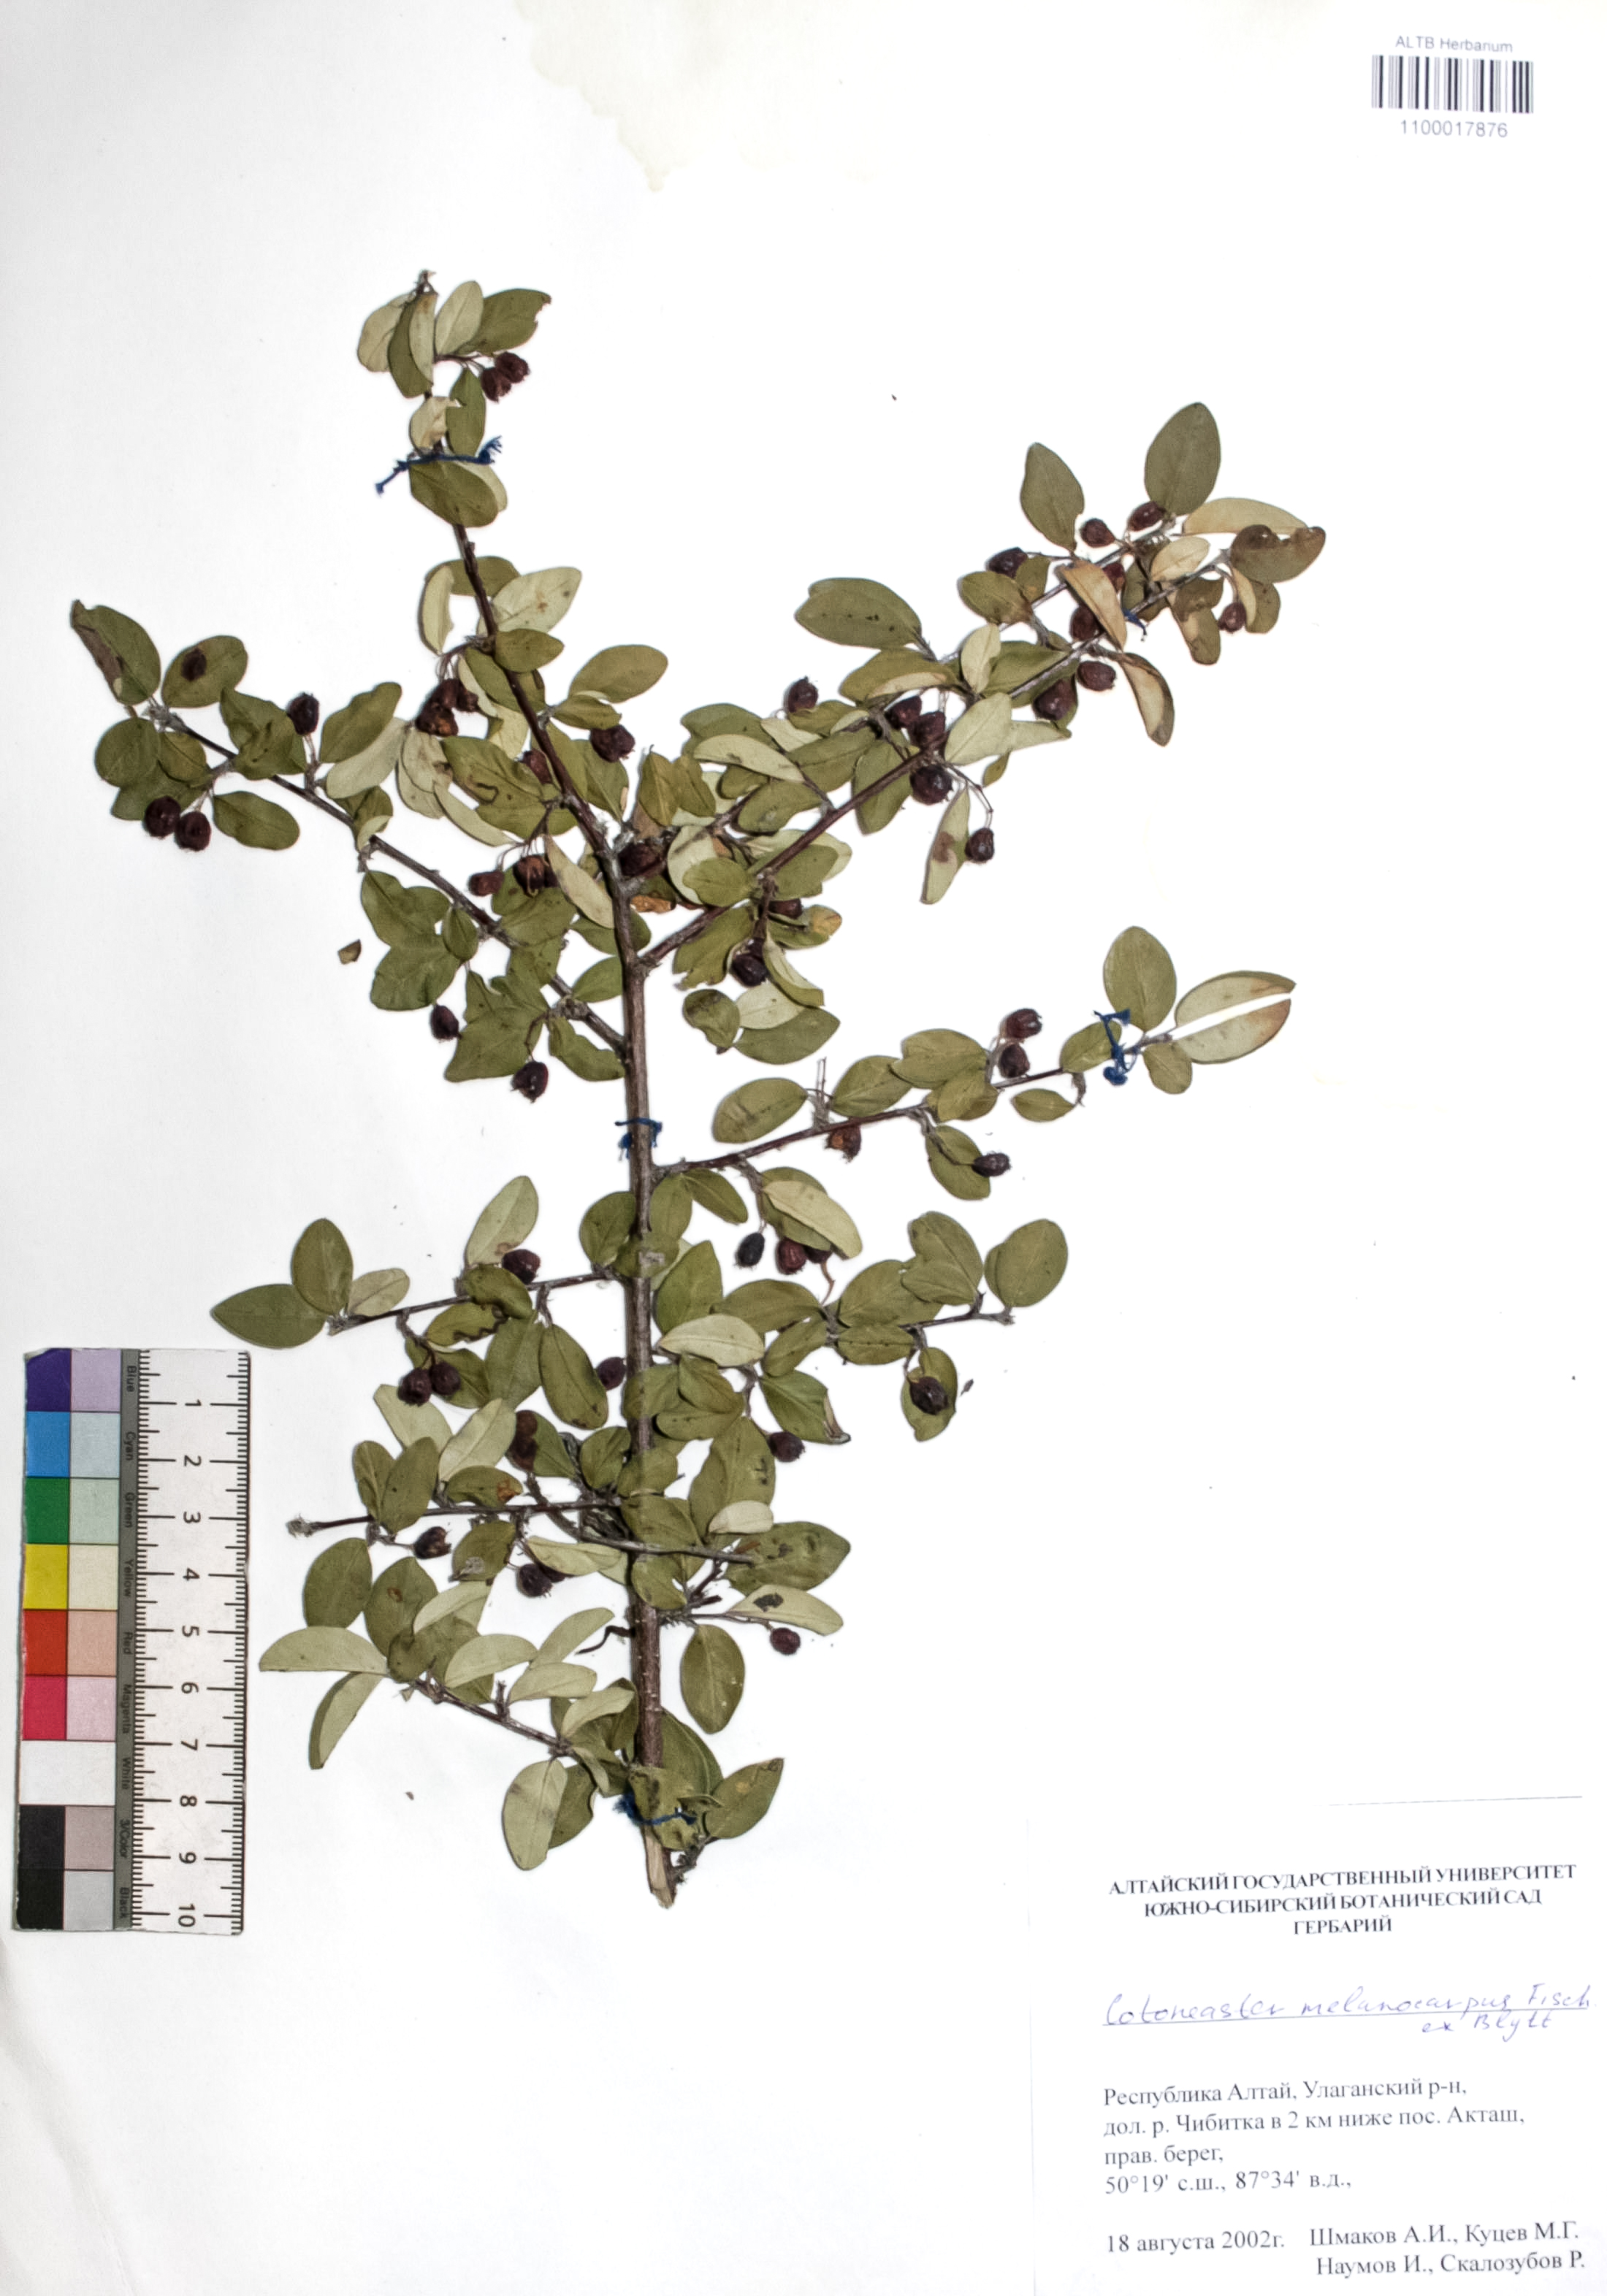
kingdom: Plantae
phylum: Tracheophyta
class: Magnoliopsida
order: Rosales
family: Rosaceae
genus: Cotoneaster
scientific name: Cotoneaster niger
